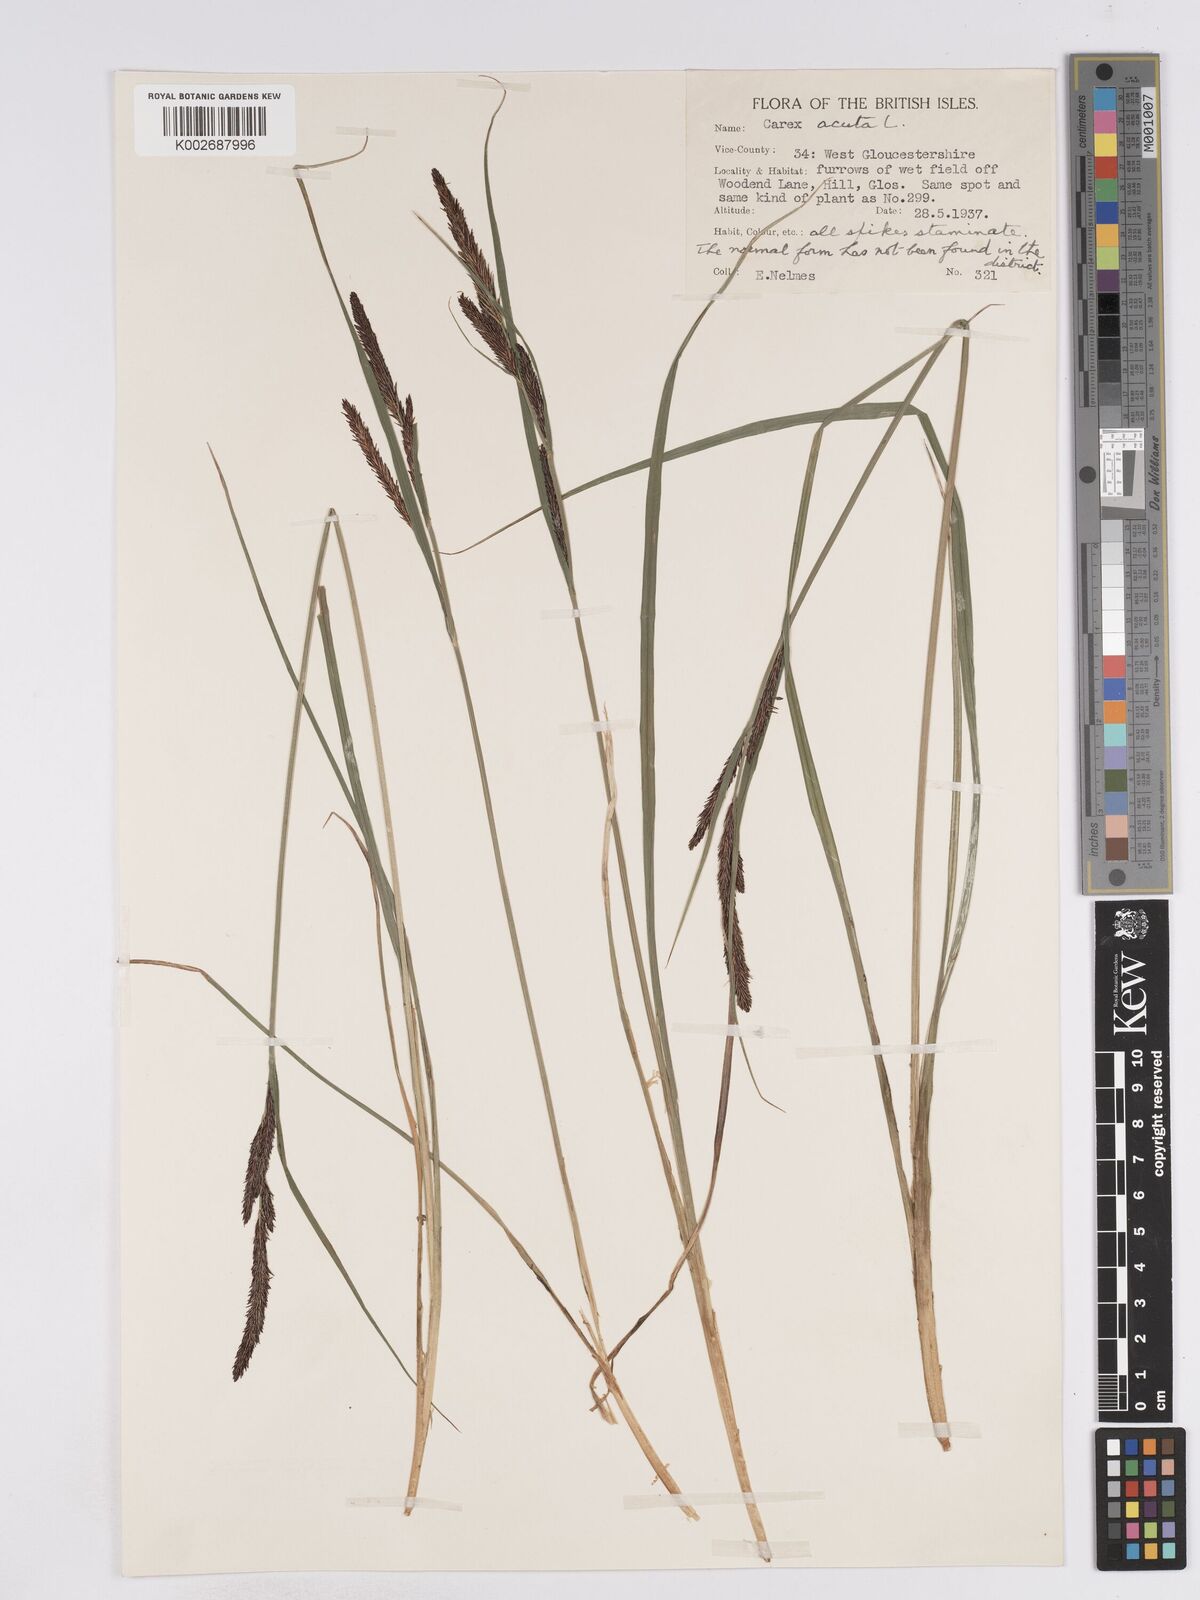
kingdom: Plantae
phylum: Tracheophyta
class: Liliopsida
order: Poales
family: Cyperaceae
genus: Carex
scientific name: Carex acuta
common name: Slender tufted-sedge
